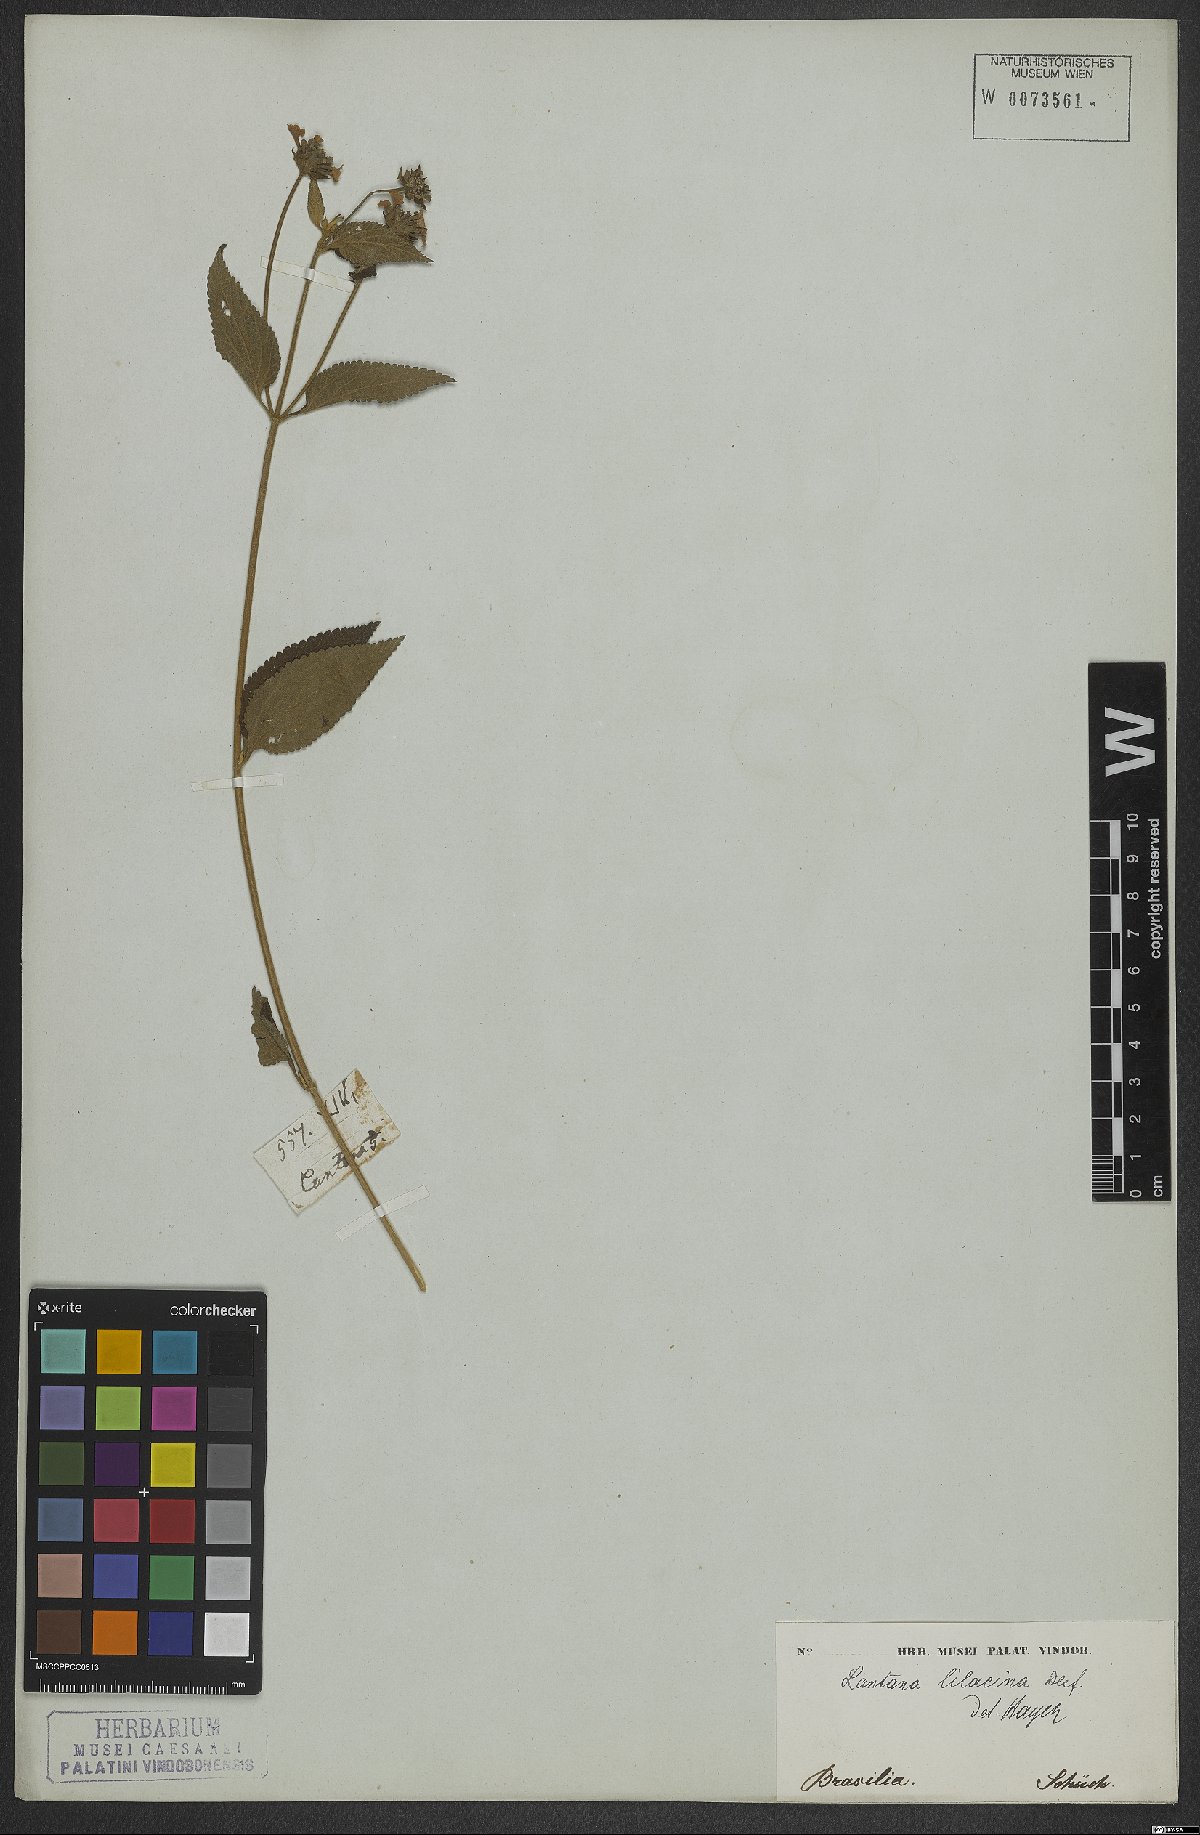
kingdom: Plantae
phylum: Tracheophyta
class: Magnoliopsida
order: Lamiales
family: Verbenaceae
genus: Lantana
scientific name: Lantana fucata
